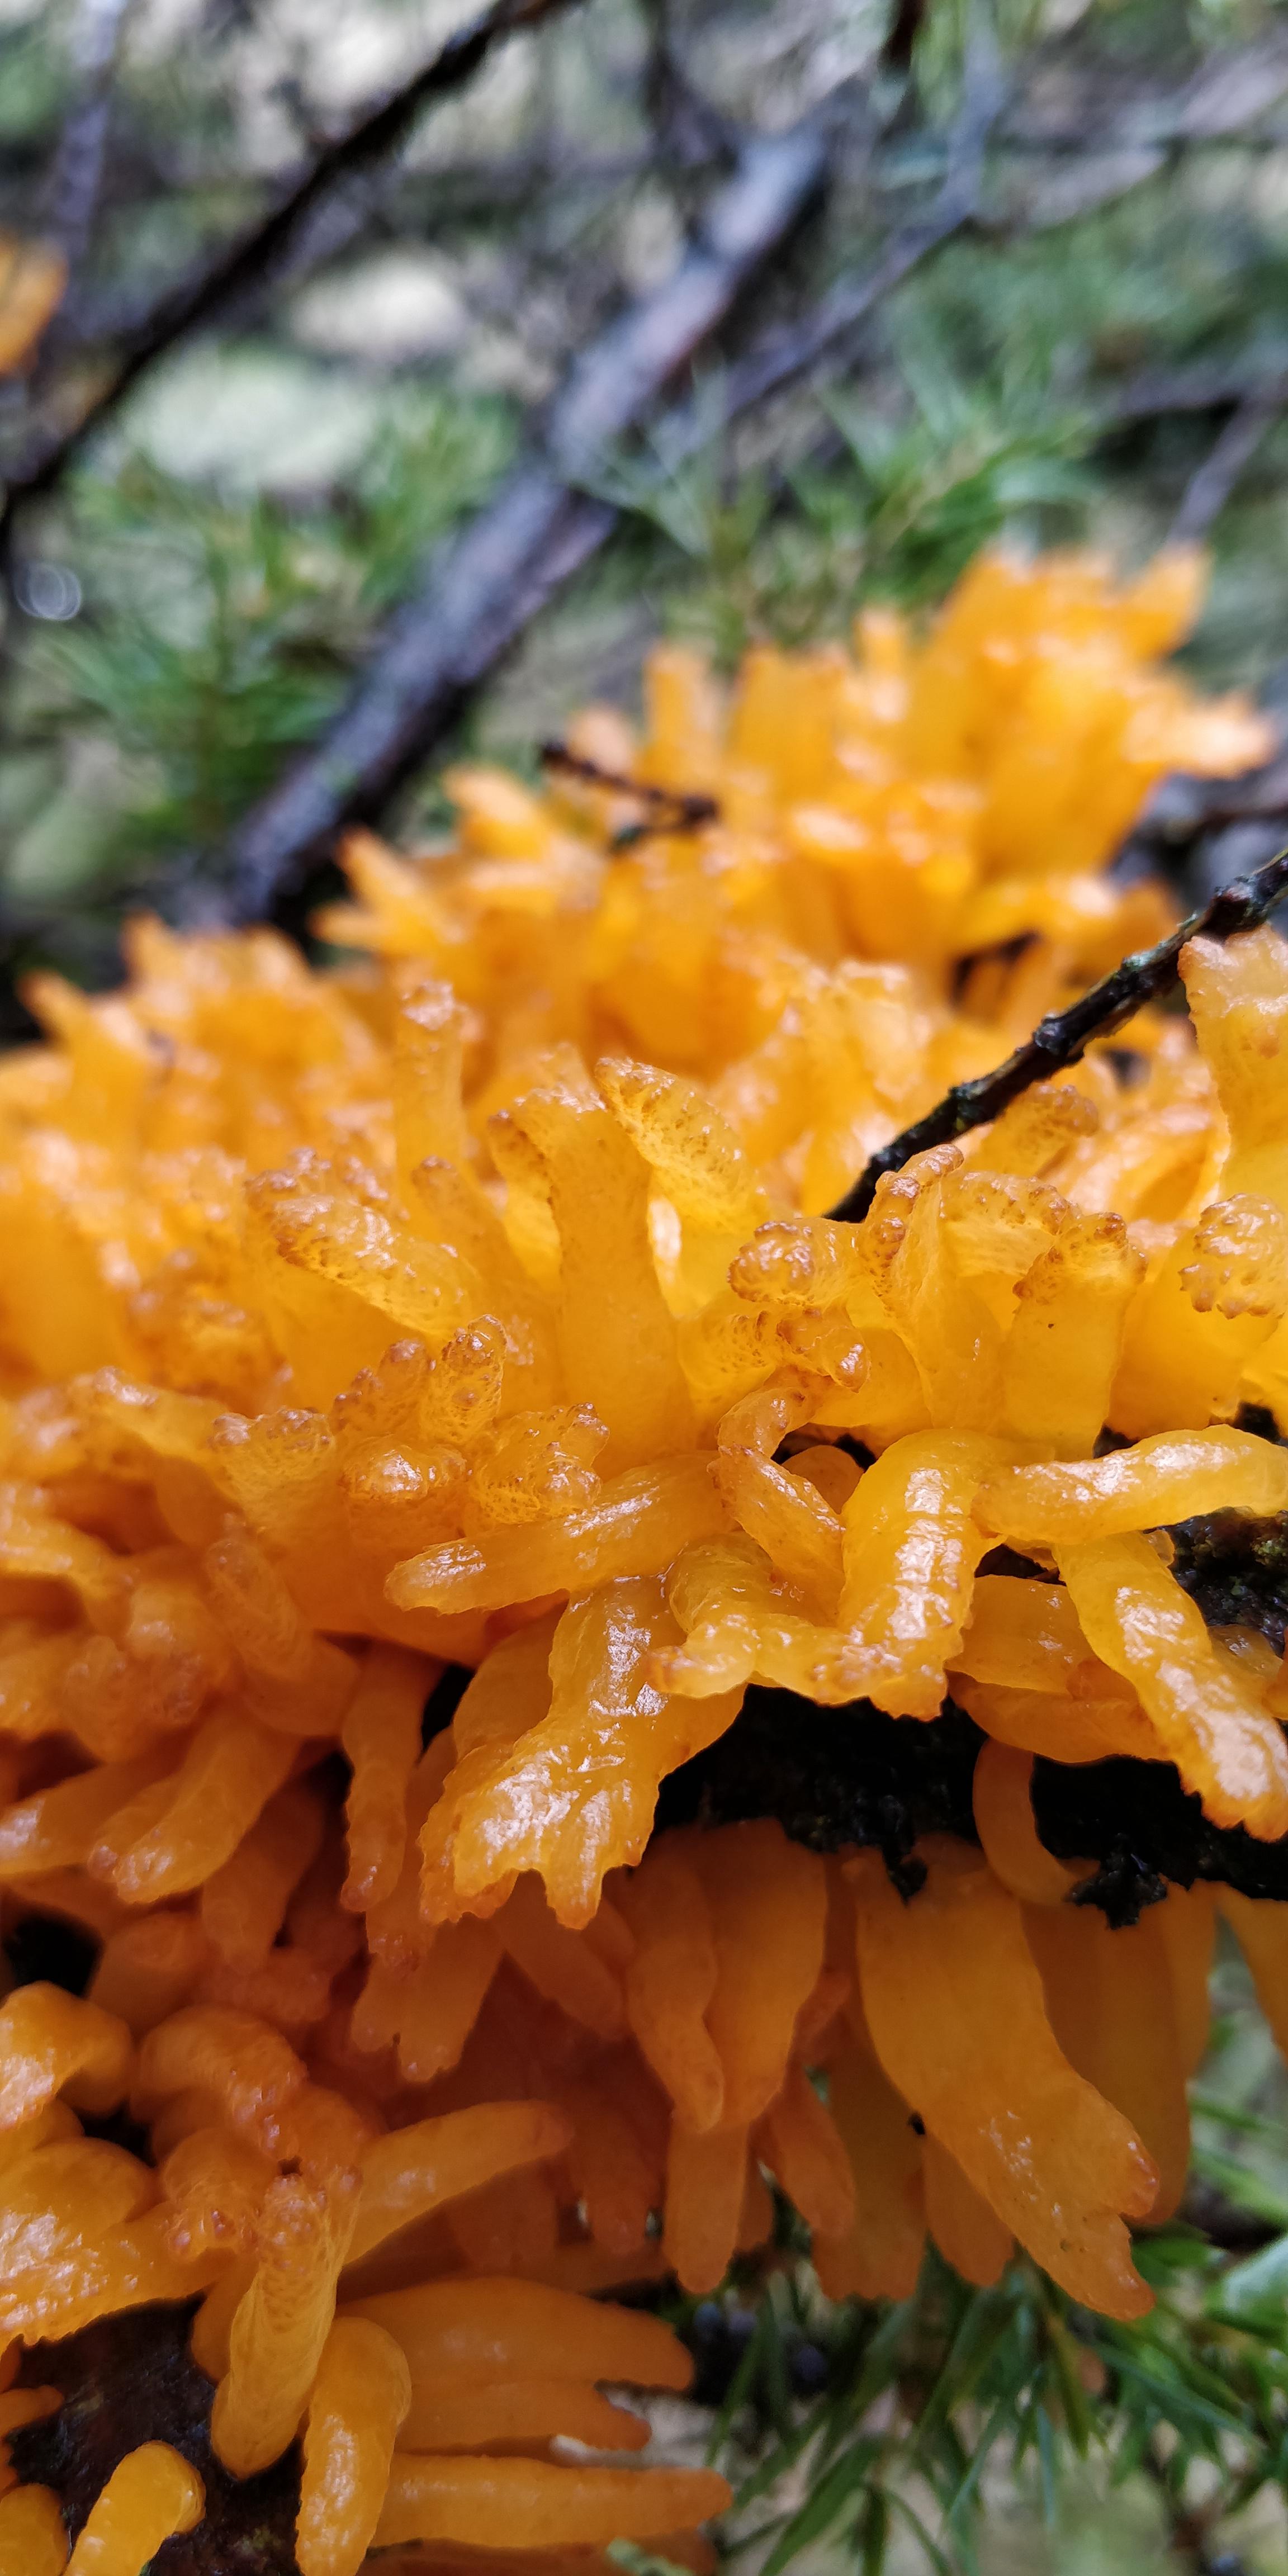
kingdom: Fungi
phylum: Basidiomycota
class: Pucciniomycetes
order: Pucciniales
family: Gymnosporangiaceae
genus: Gymnosporangium
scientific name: Gymnosporangium clavariiforme
